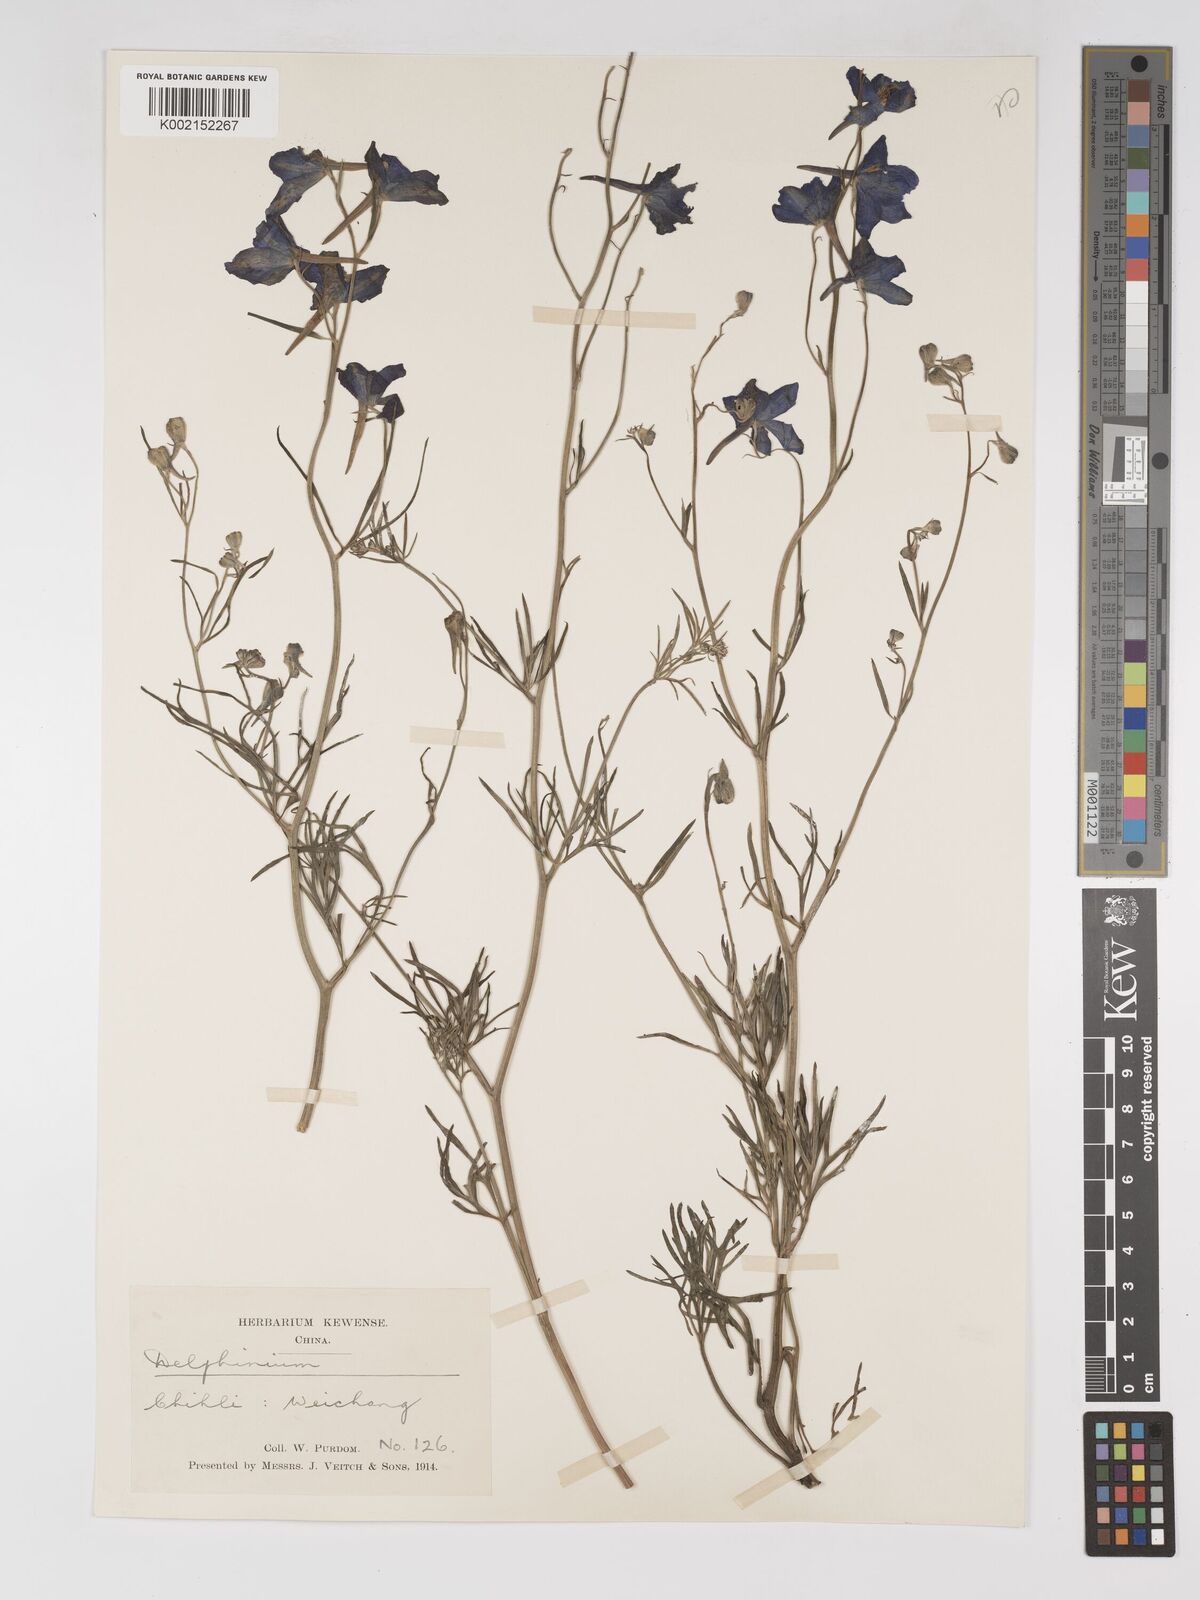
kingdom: Plantae
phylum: Tracheophyta
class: Magnoliopsida
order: Ranunculales
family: Ranunculaceae
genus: Delphinium
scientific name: Delphinium grandiflorum
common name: Siberian larkspur
